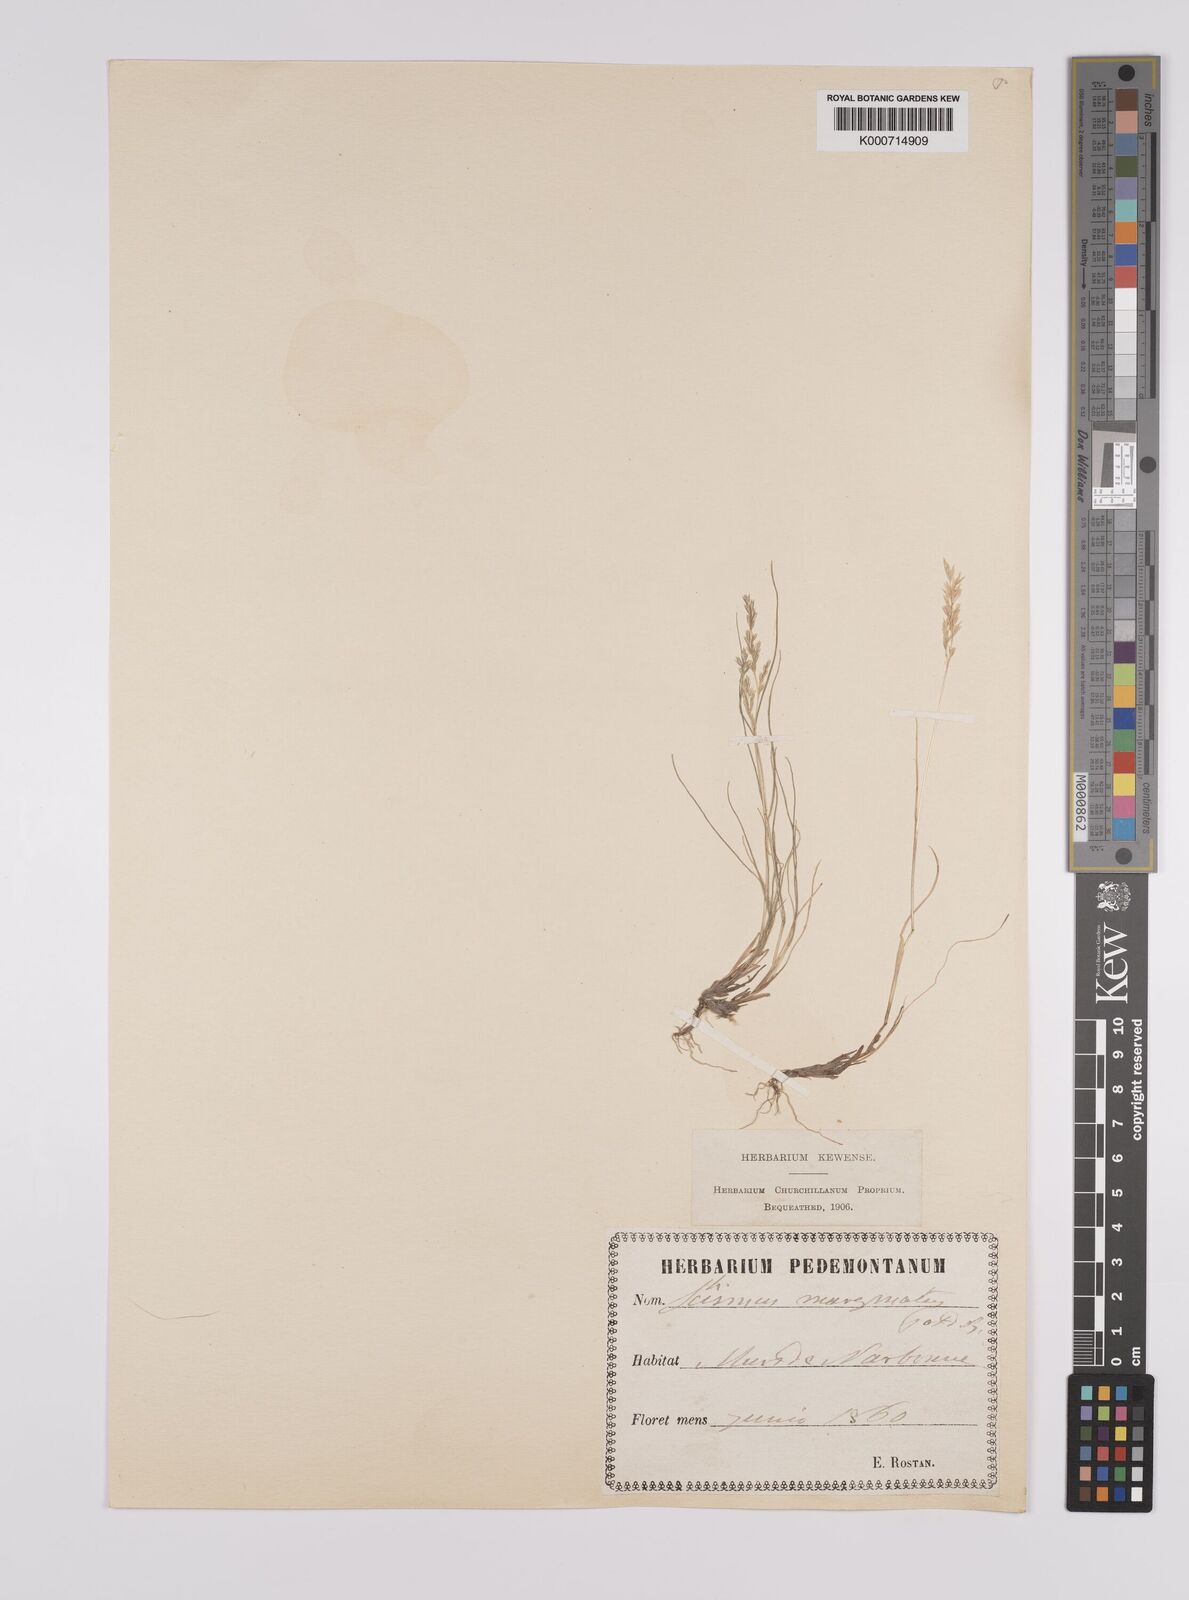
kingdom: Plantae
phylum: Tracheophyta
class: Liliopsida
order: Poales
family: Poaceae
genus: Schismus
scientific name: Schismus barbatus
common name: Kelch-grass
